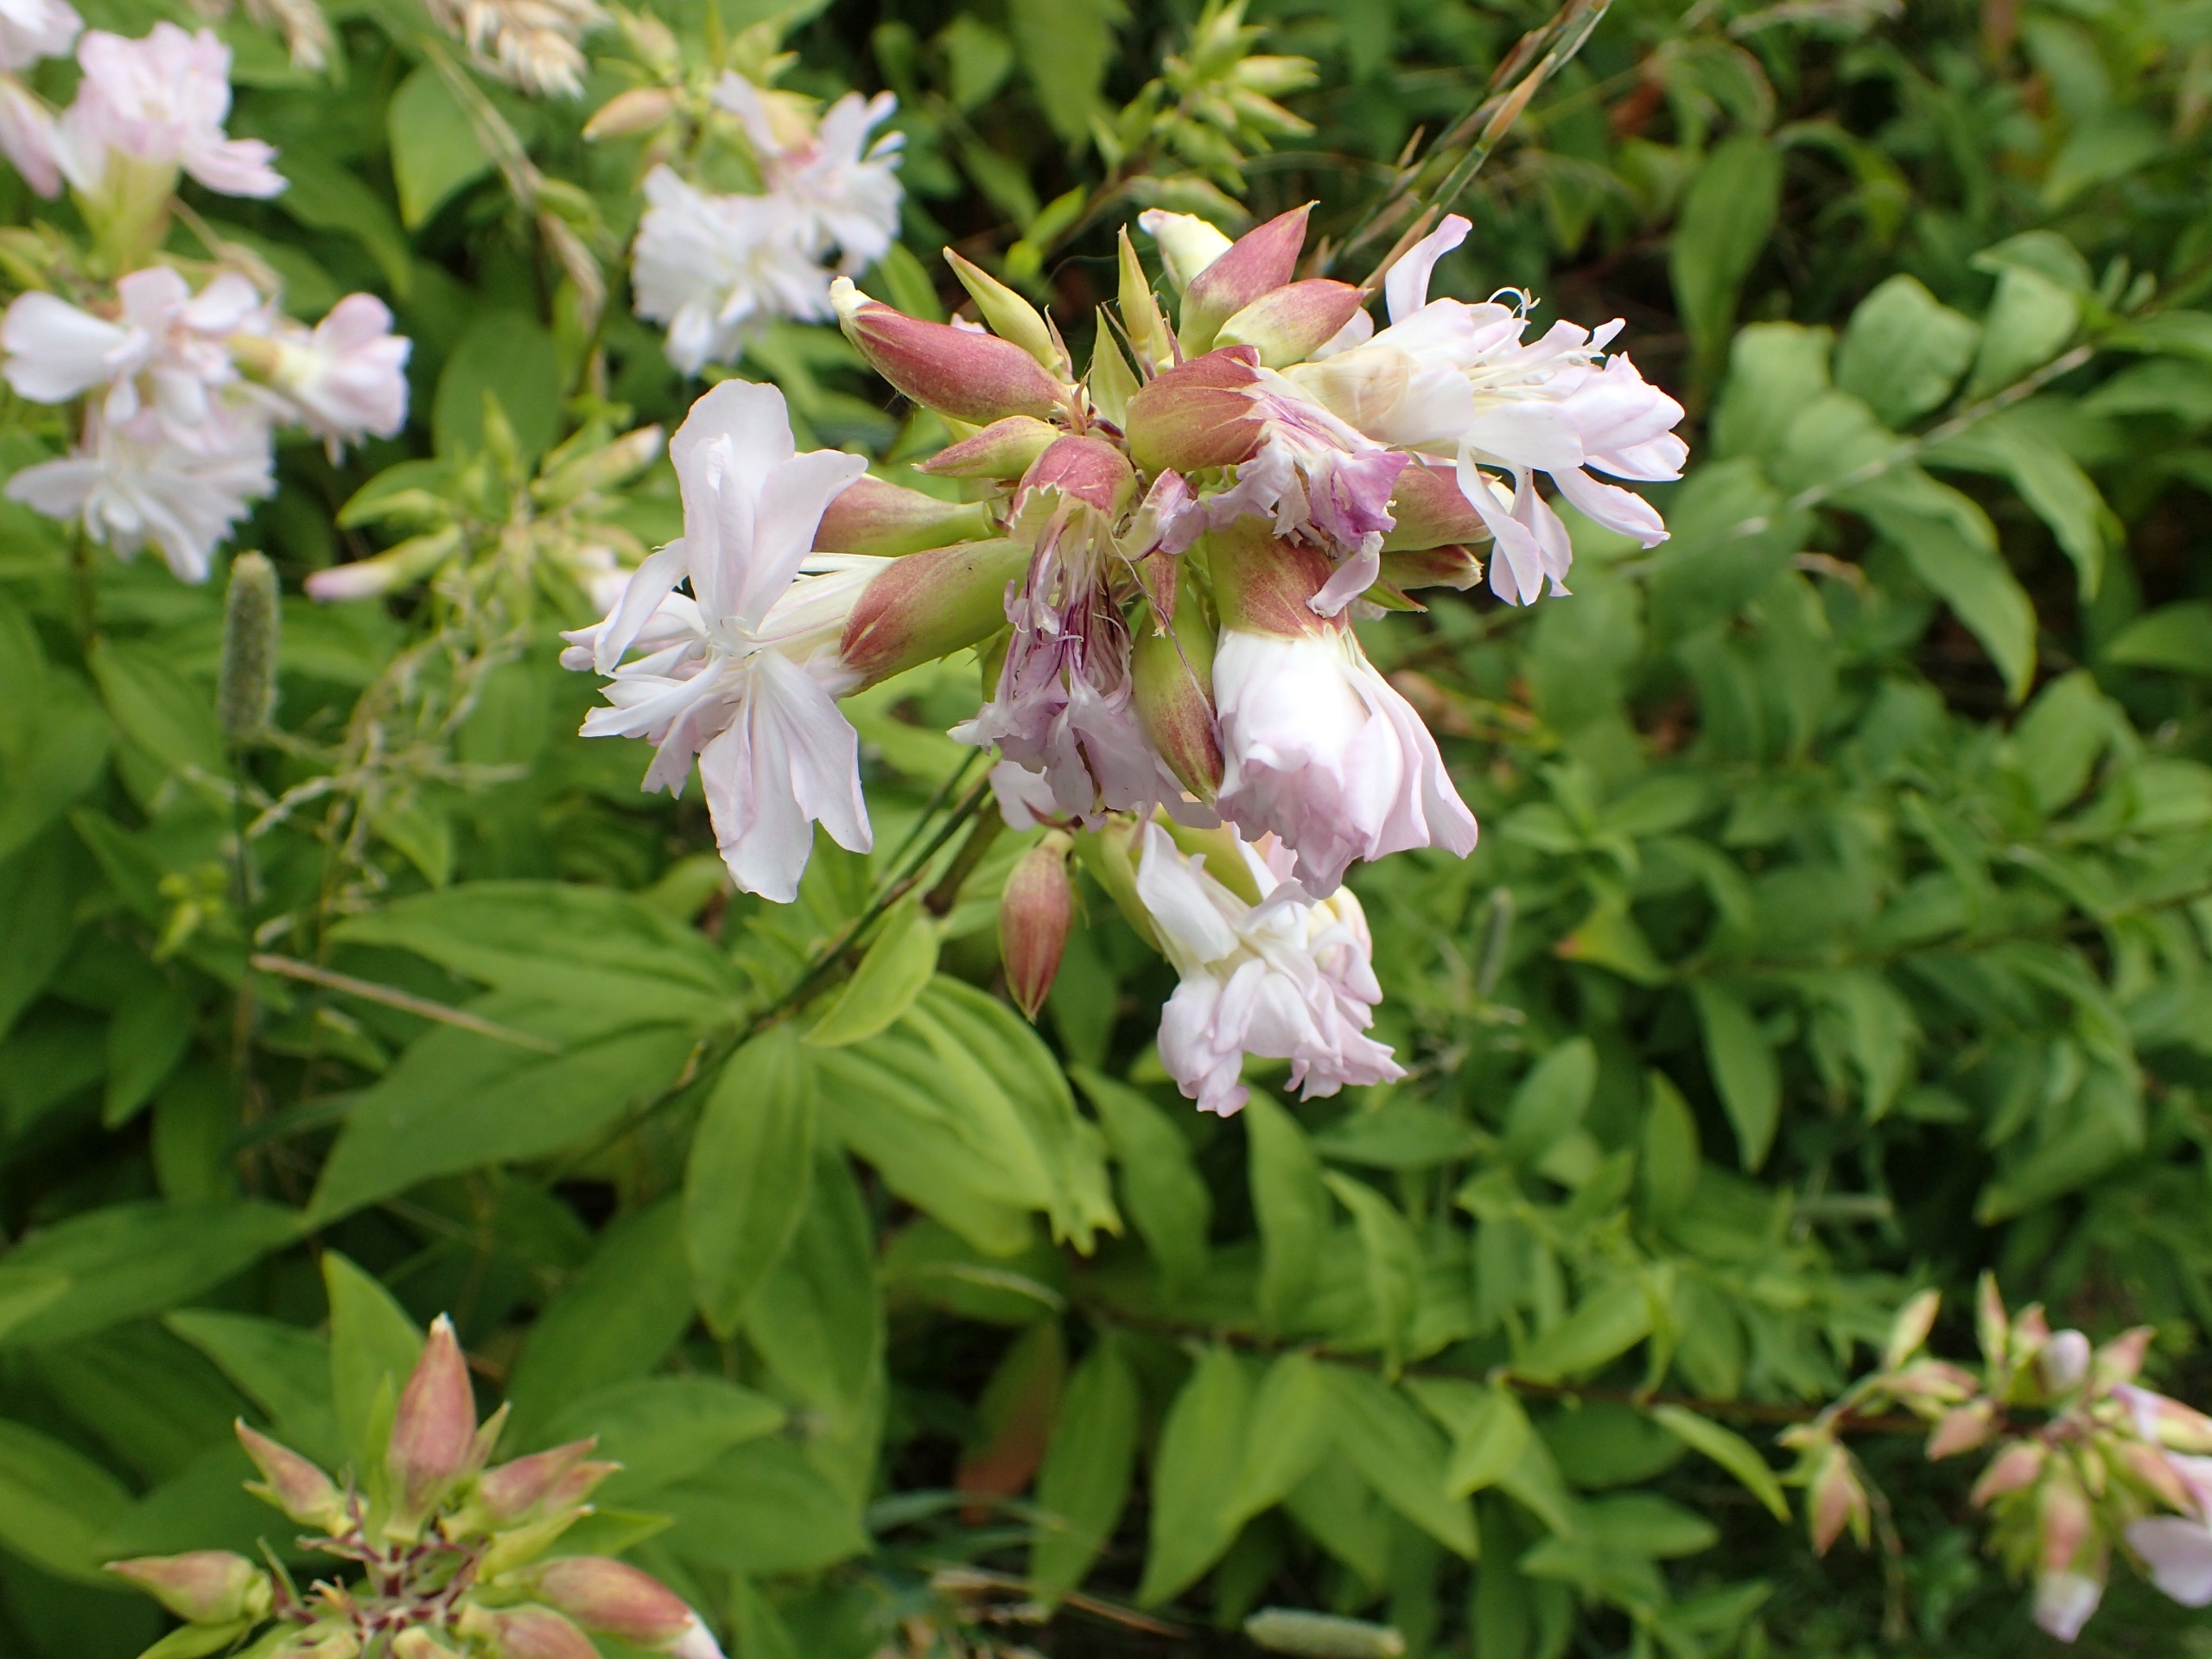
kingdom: Plantae
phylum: Tracheophyta
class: Magnoliopsida
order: Caryophyllales
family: Caryophyllaceae
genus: Saponaria
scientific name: Saponaria officinalis
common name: Sæbeurt
